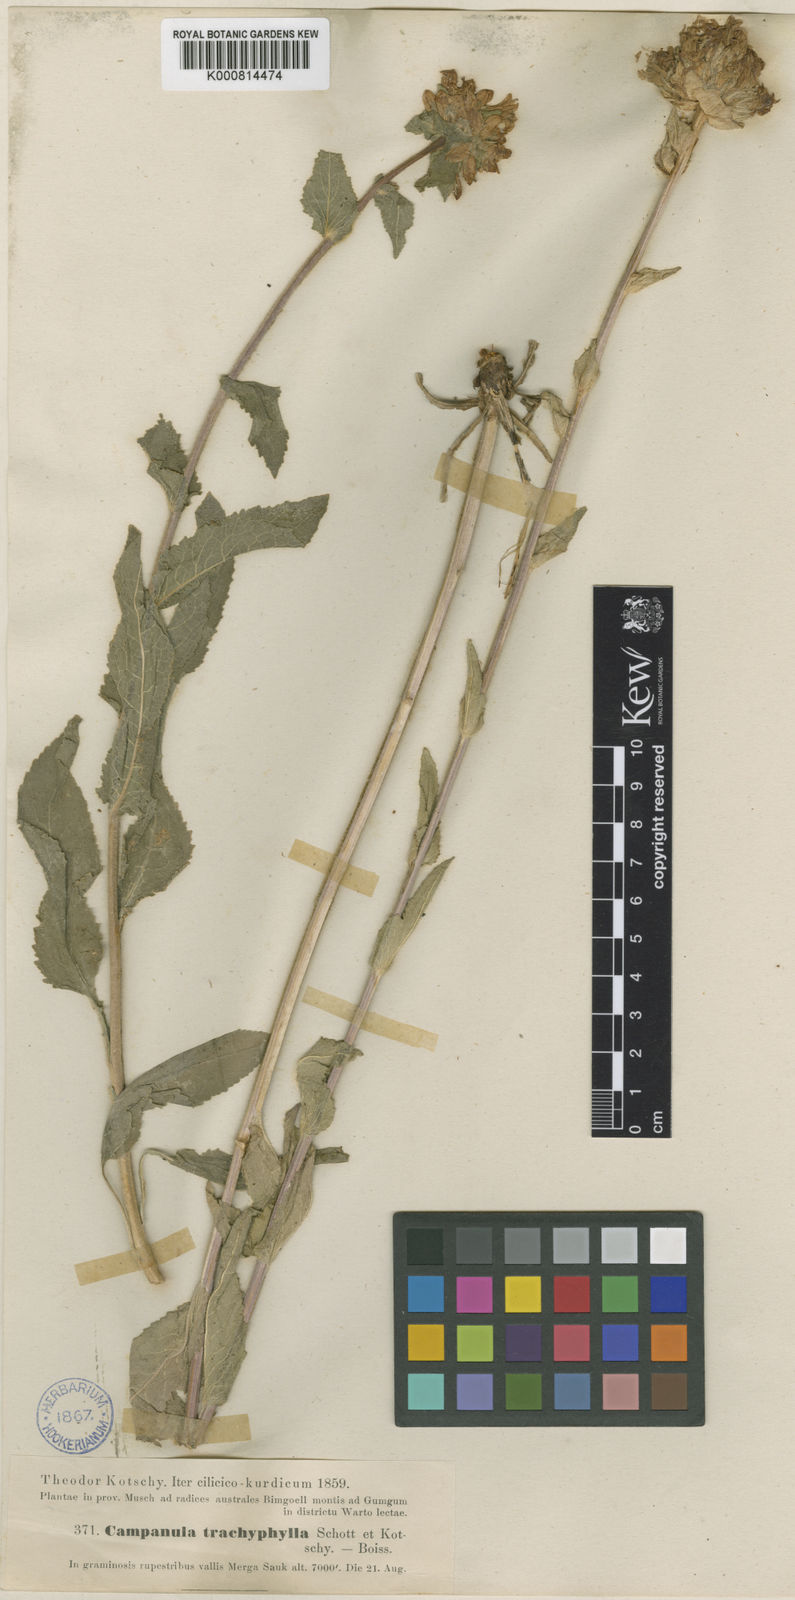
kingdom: Plantae
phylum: Tracheophyta
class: Magnoliopsida
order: Asterales
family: Campanulaceae
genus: Campanula
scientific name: Campanula glomerata
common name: Clustered bellflower
